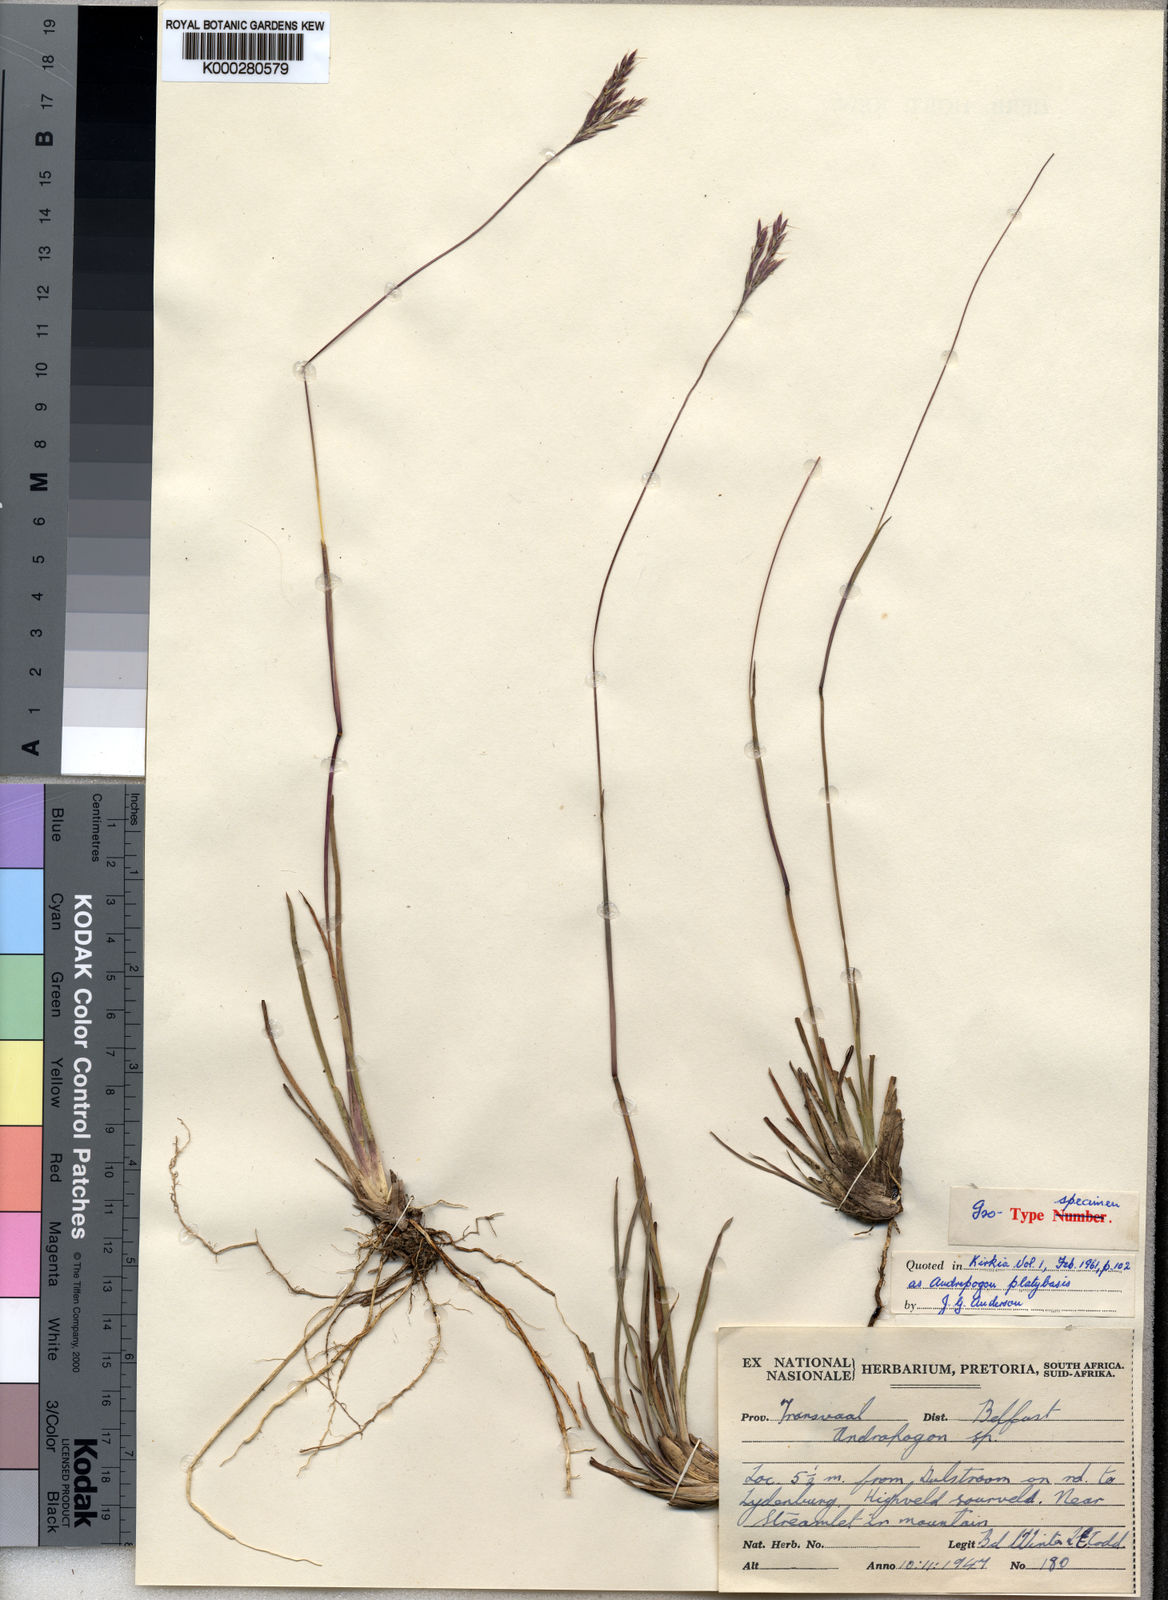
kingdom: Plantae
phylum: Tracheophyta
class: Liliopsida
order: Poales
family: Poaceae
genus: Andropogon
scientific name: Andropogon mannii
